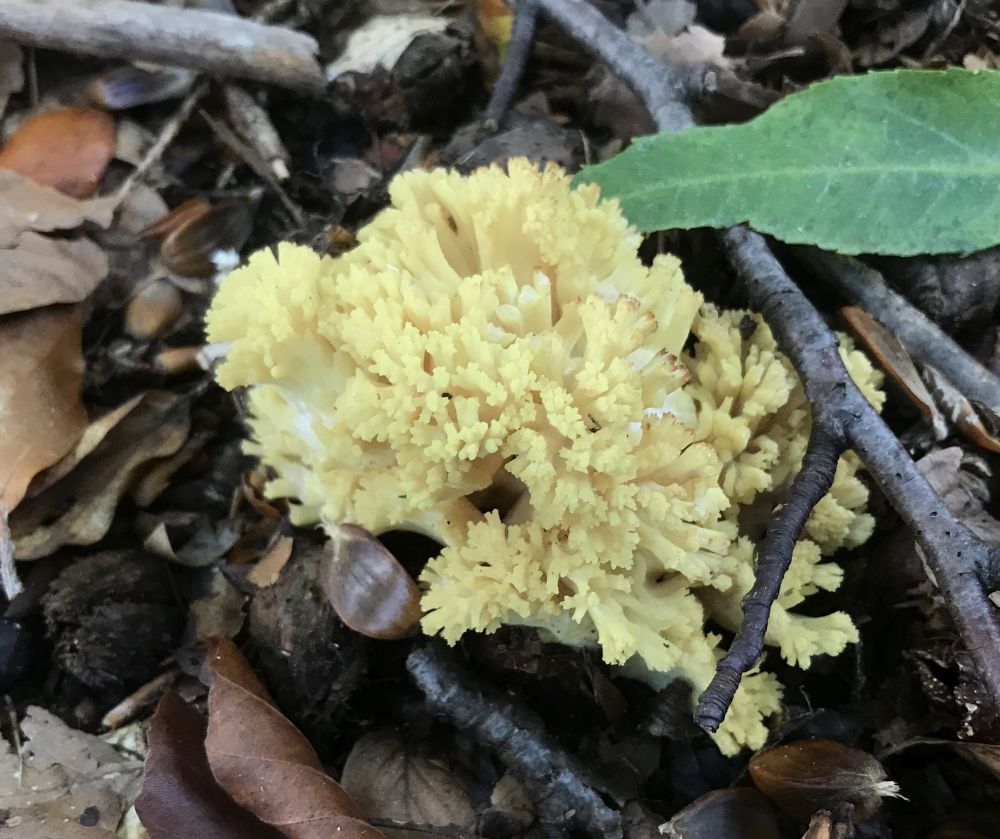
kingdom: Fungi
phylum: Basidiomycota
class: Agaricomycetes
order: Gomphales
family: Gomphaceae
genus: Ramaria
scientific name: Ramaria sanguinea
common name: blodplettet koralsvamp
